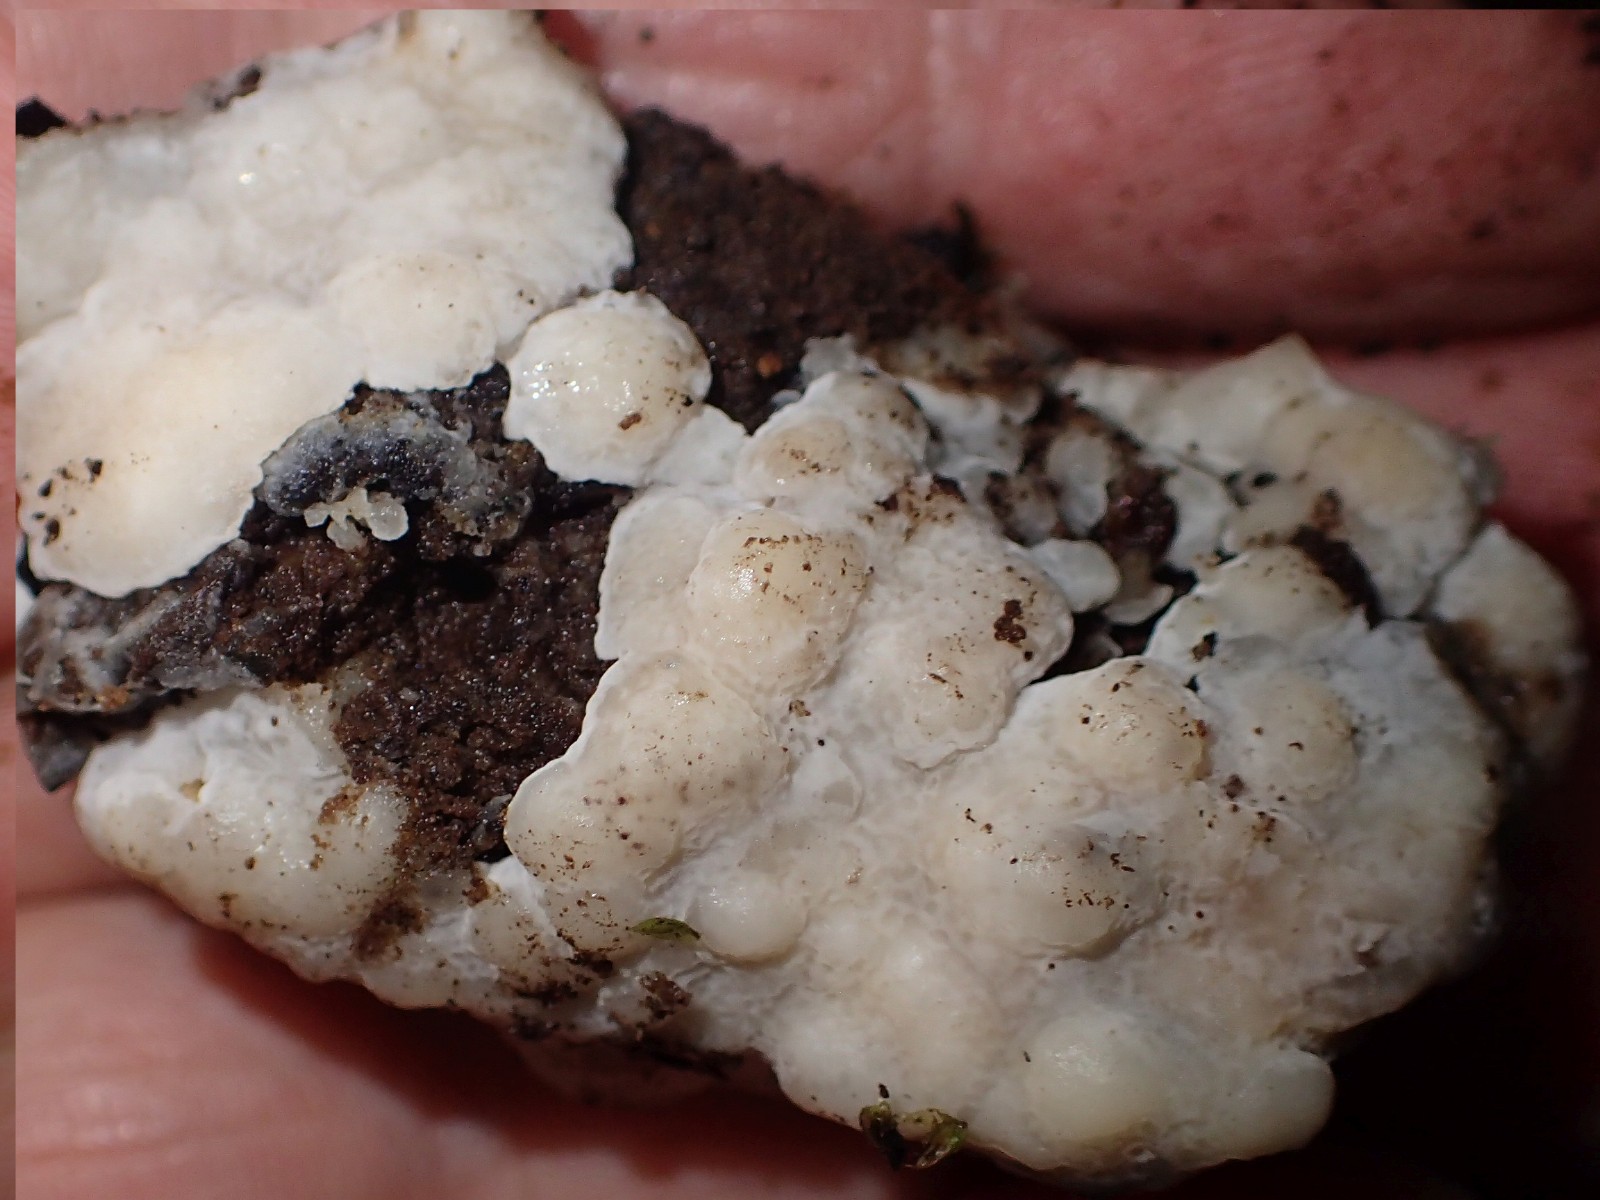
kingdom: Fungi
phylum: Basidiomycota
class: Agaricomycetes
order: Polyporales
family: Meruliaceae
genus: Physisporinus
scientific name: Physisporinus
